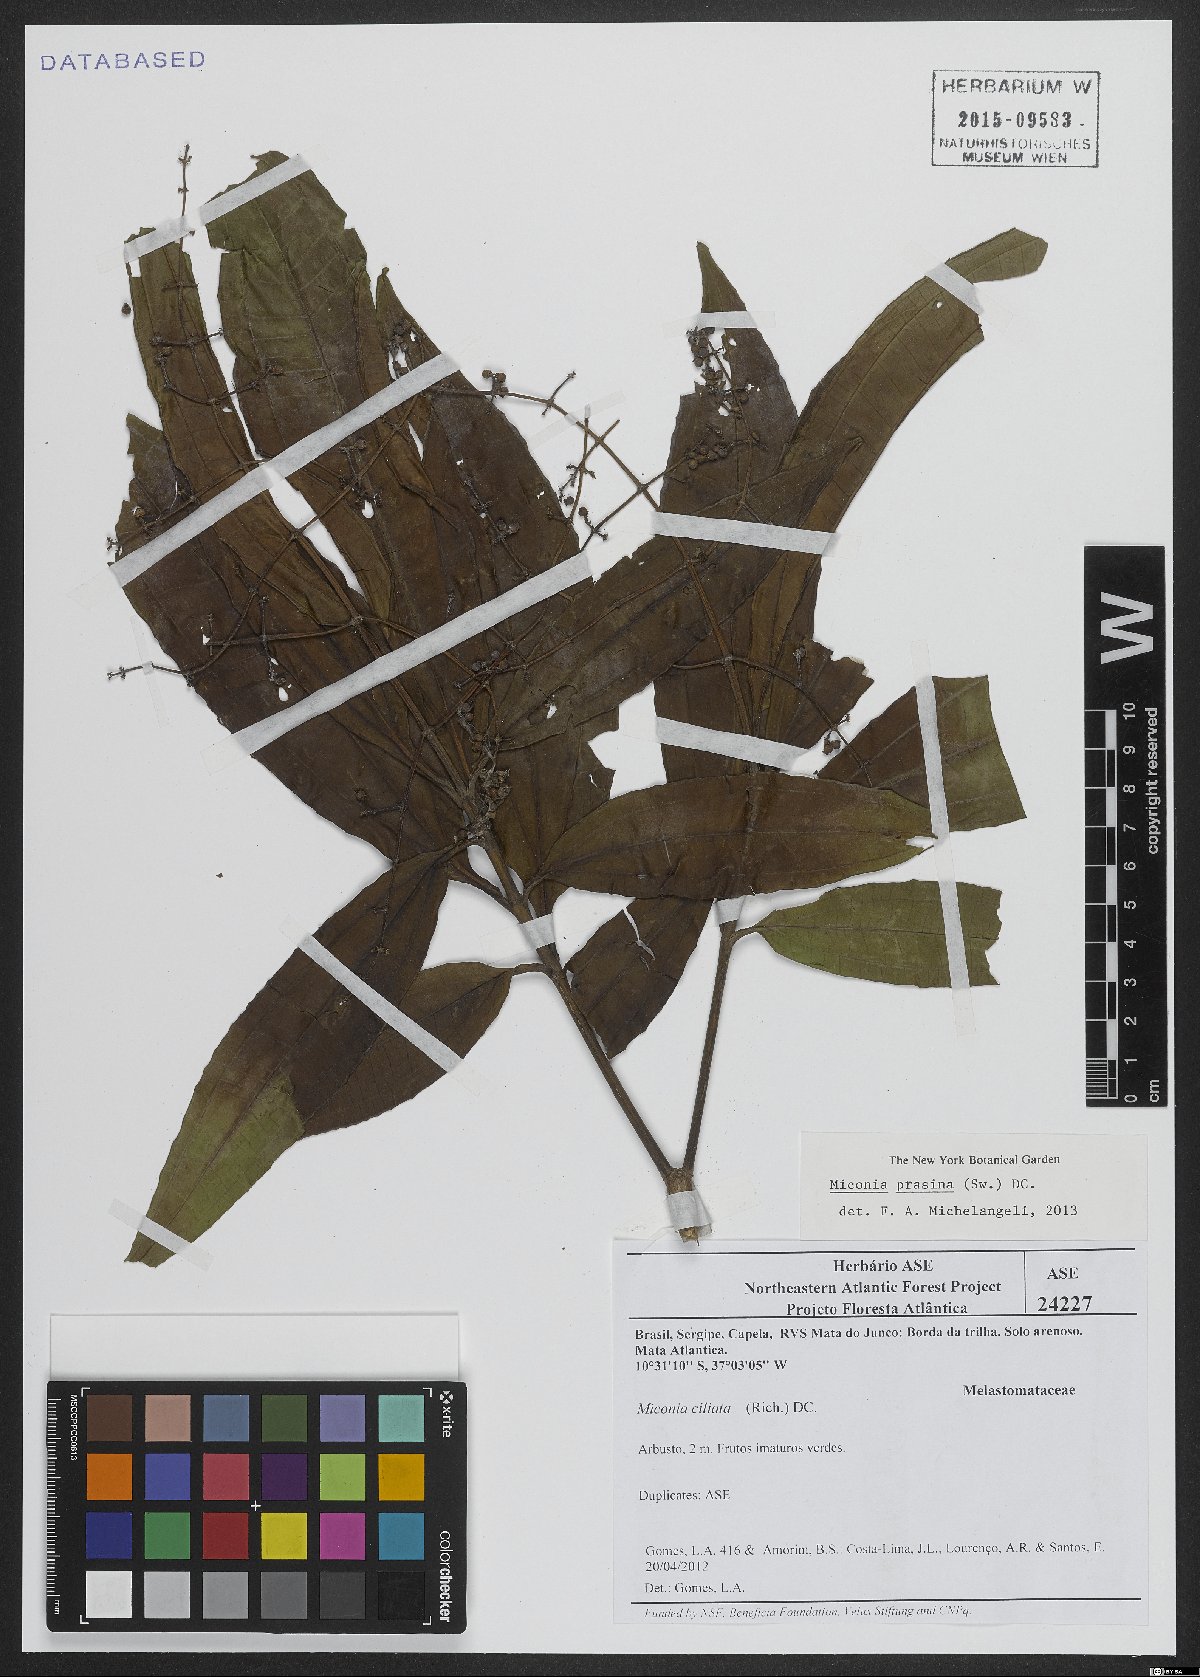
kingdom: Plantae
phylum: Tracheophyta
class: Magnoliopsida
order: Myrtales
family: Melastomataceae
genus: Miconia
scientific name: Miconia prasina
